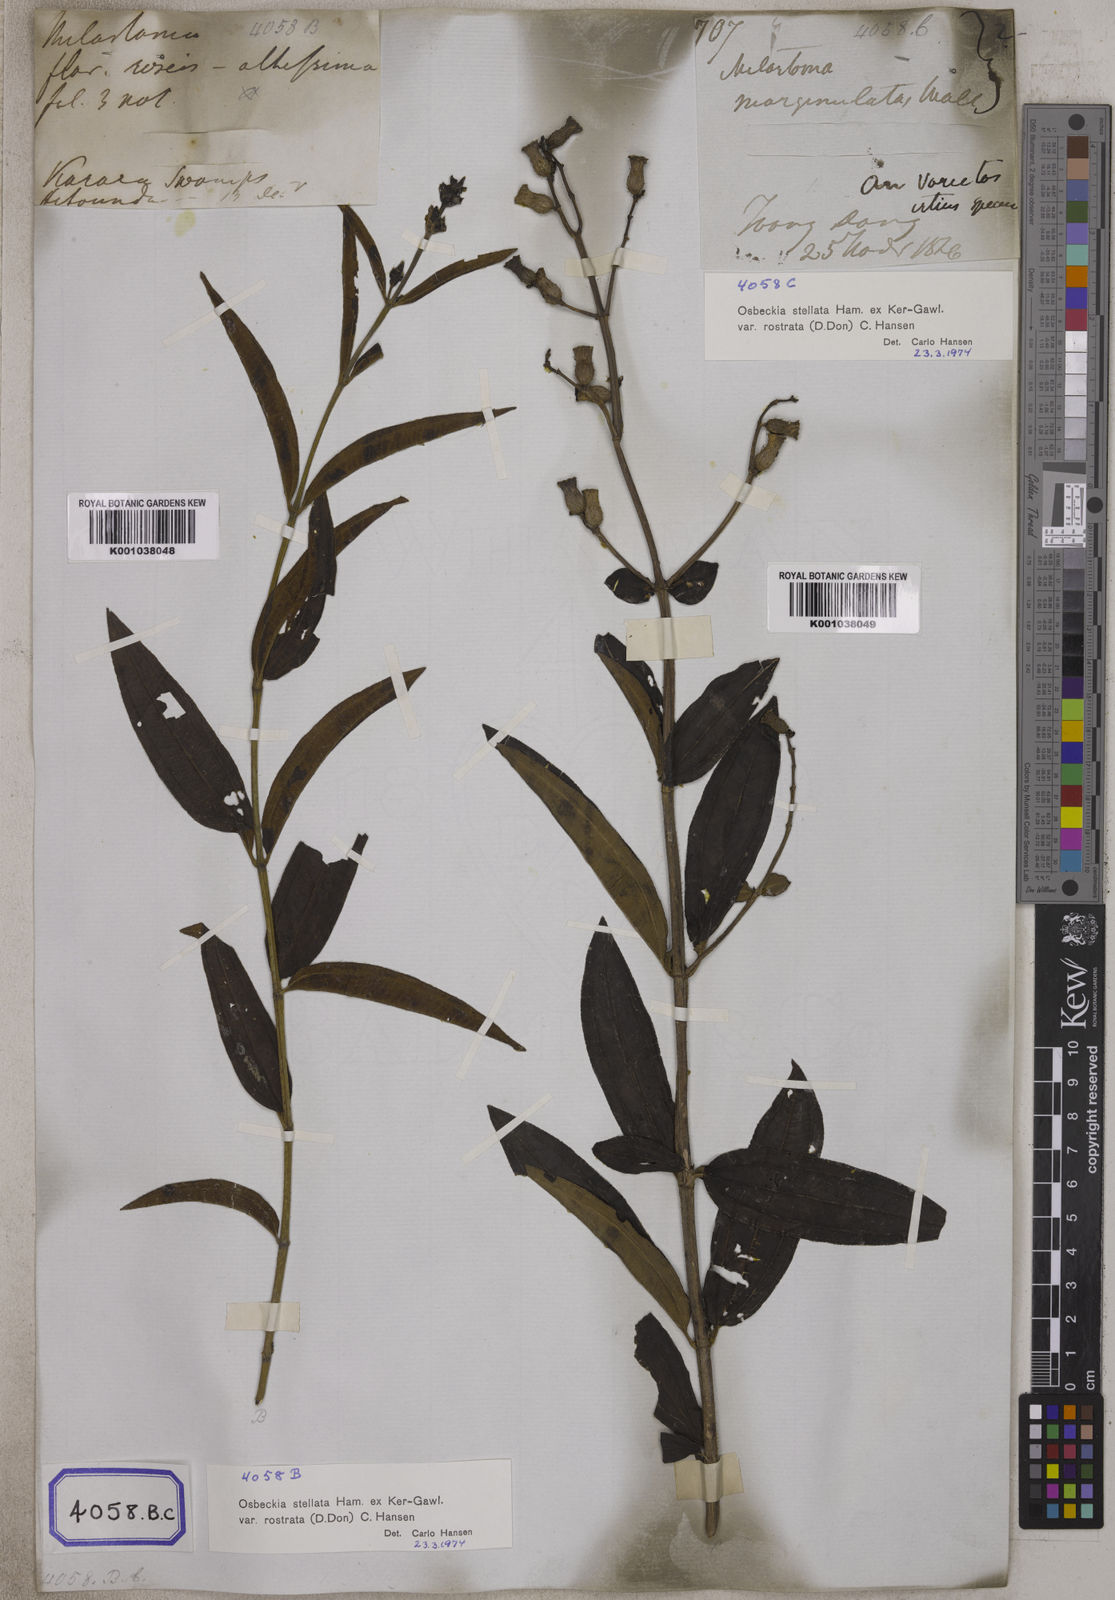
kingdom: Plantae
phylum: Tracheophyta
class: Magnoliopsida
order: Myrtales
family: Melastomataceae
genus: Osbeckia
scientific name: Osbeckia rostrata
